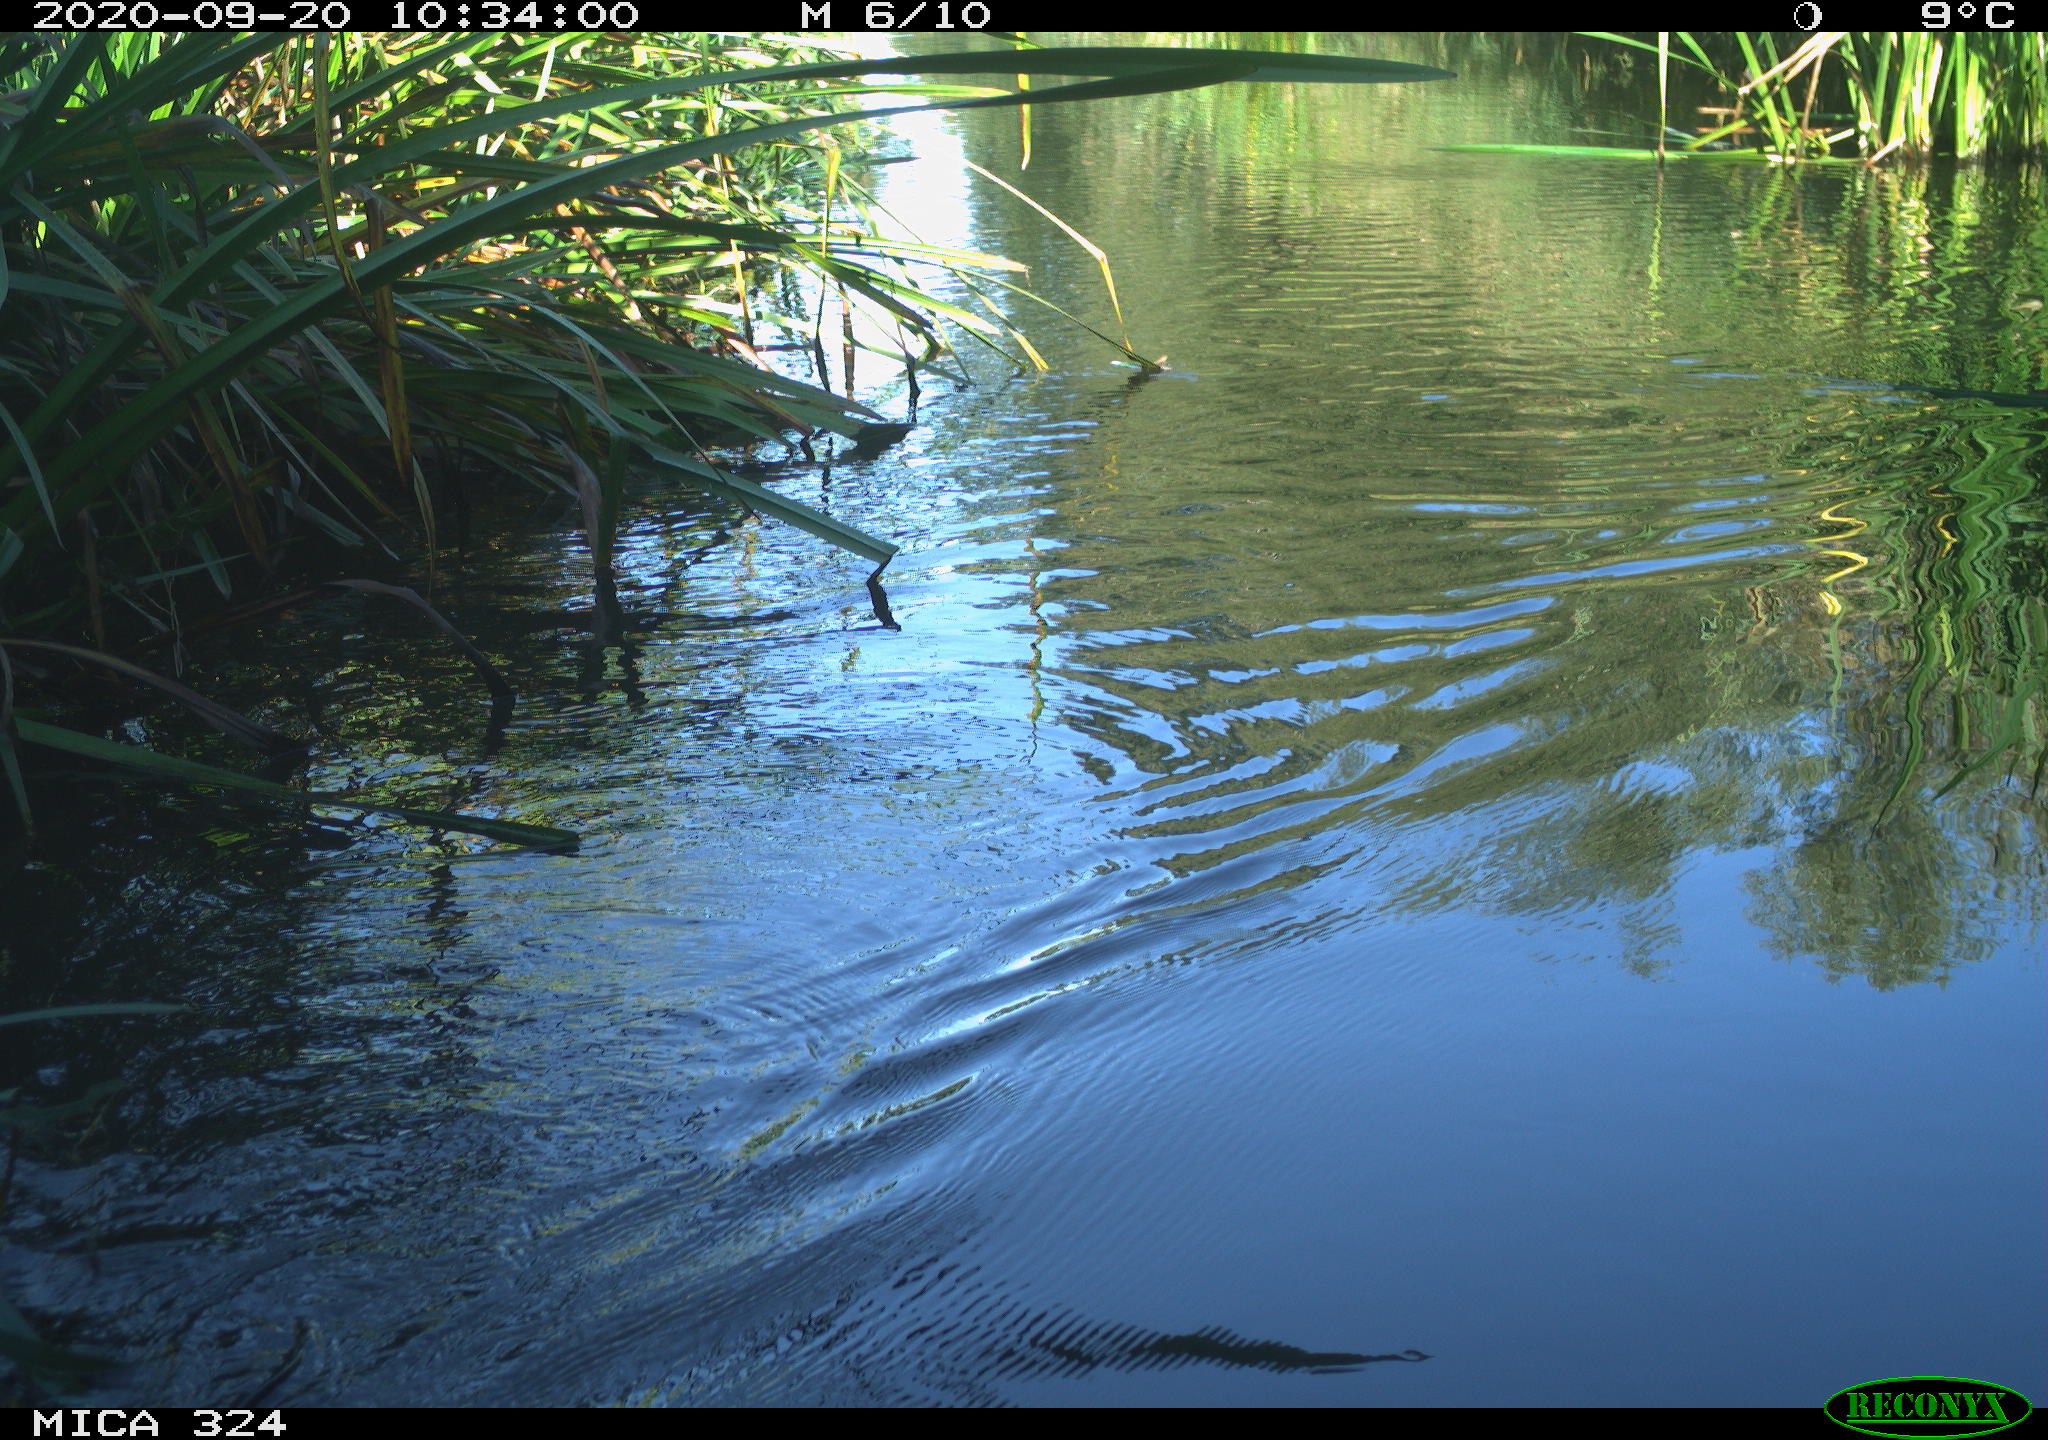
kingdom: Animalia
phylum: Chordata
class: Mammalia
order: Rodentia
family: Cricetidae
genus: Ondatra
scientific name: Ondatra zibethicus
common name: Muskrat
